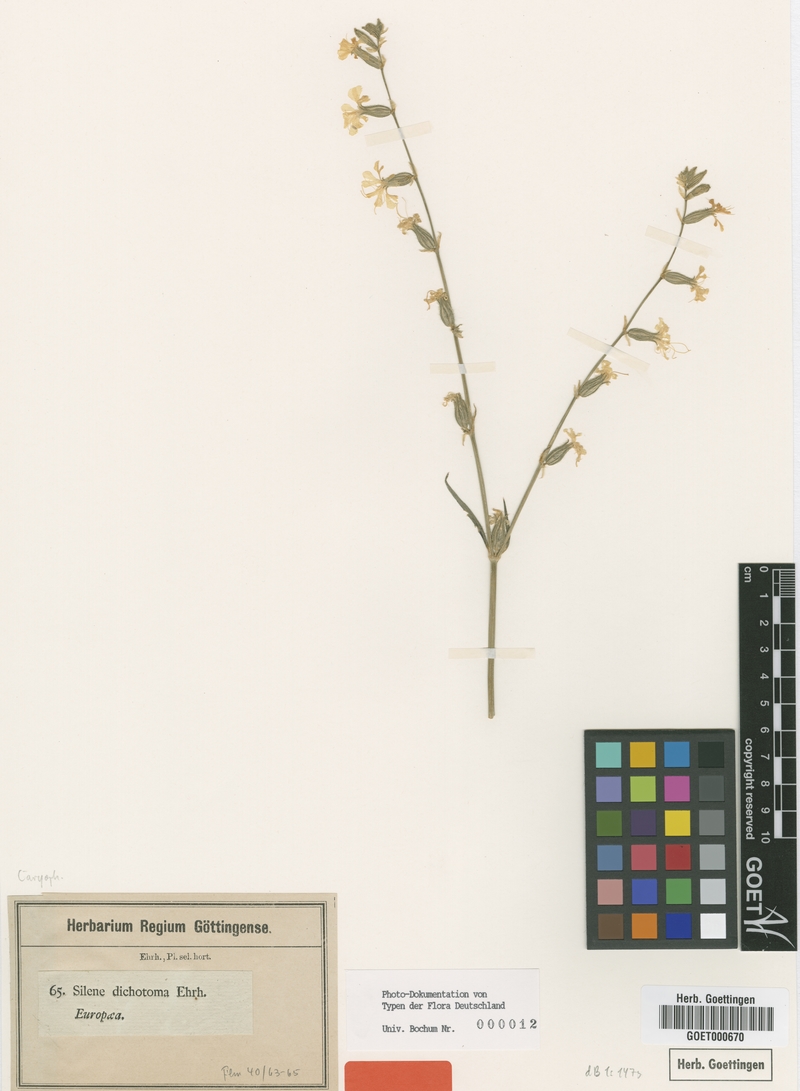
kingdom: Plantae
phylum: Tracheophyta
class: Magnoliopsida
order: Caryophyllales
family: Caryophyllaceae
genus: Silene
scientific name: Silene dichotoma
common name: Forked catchfly
